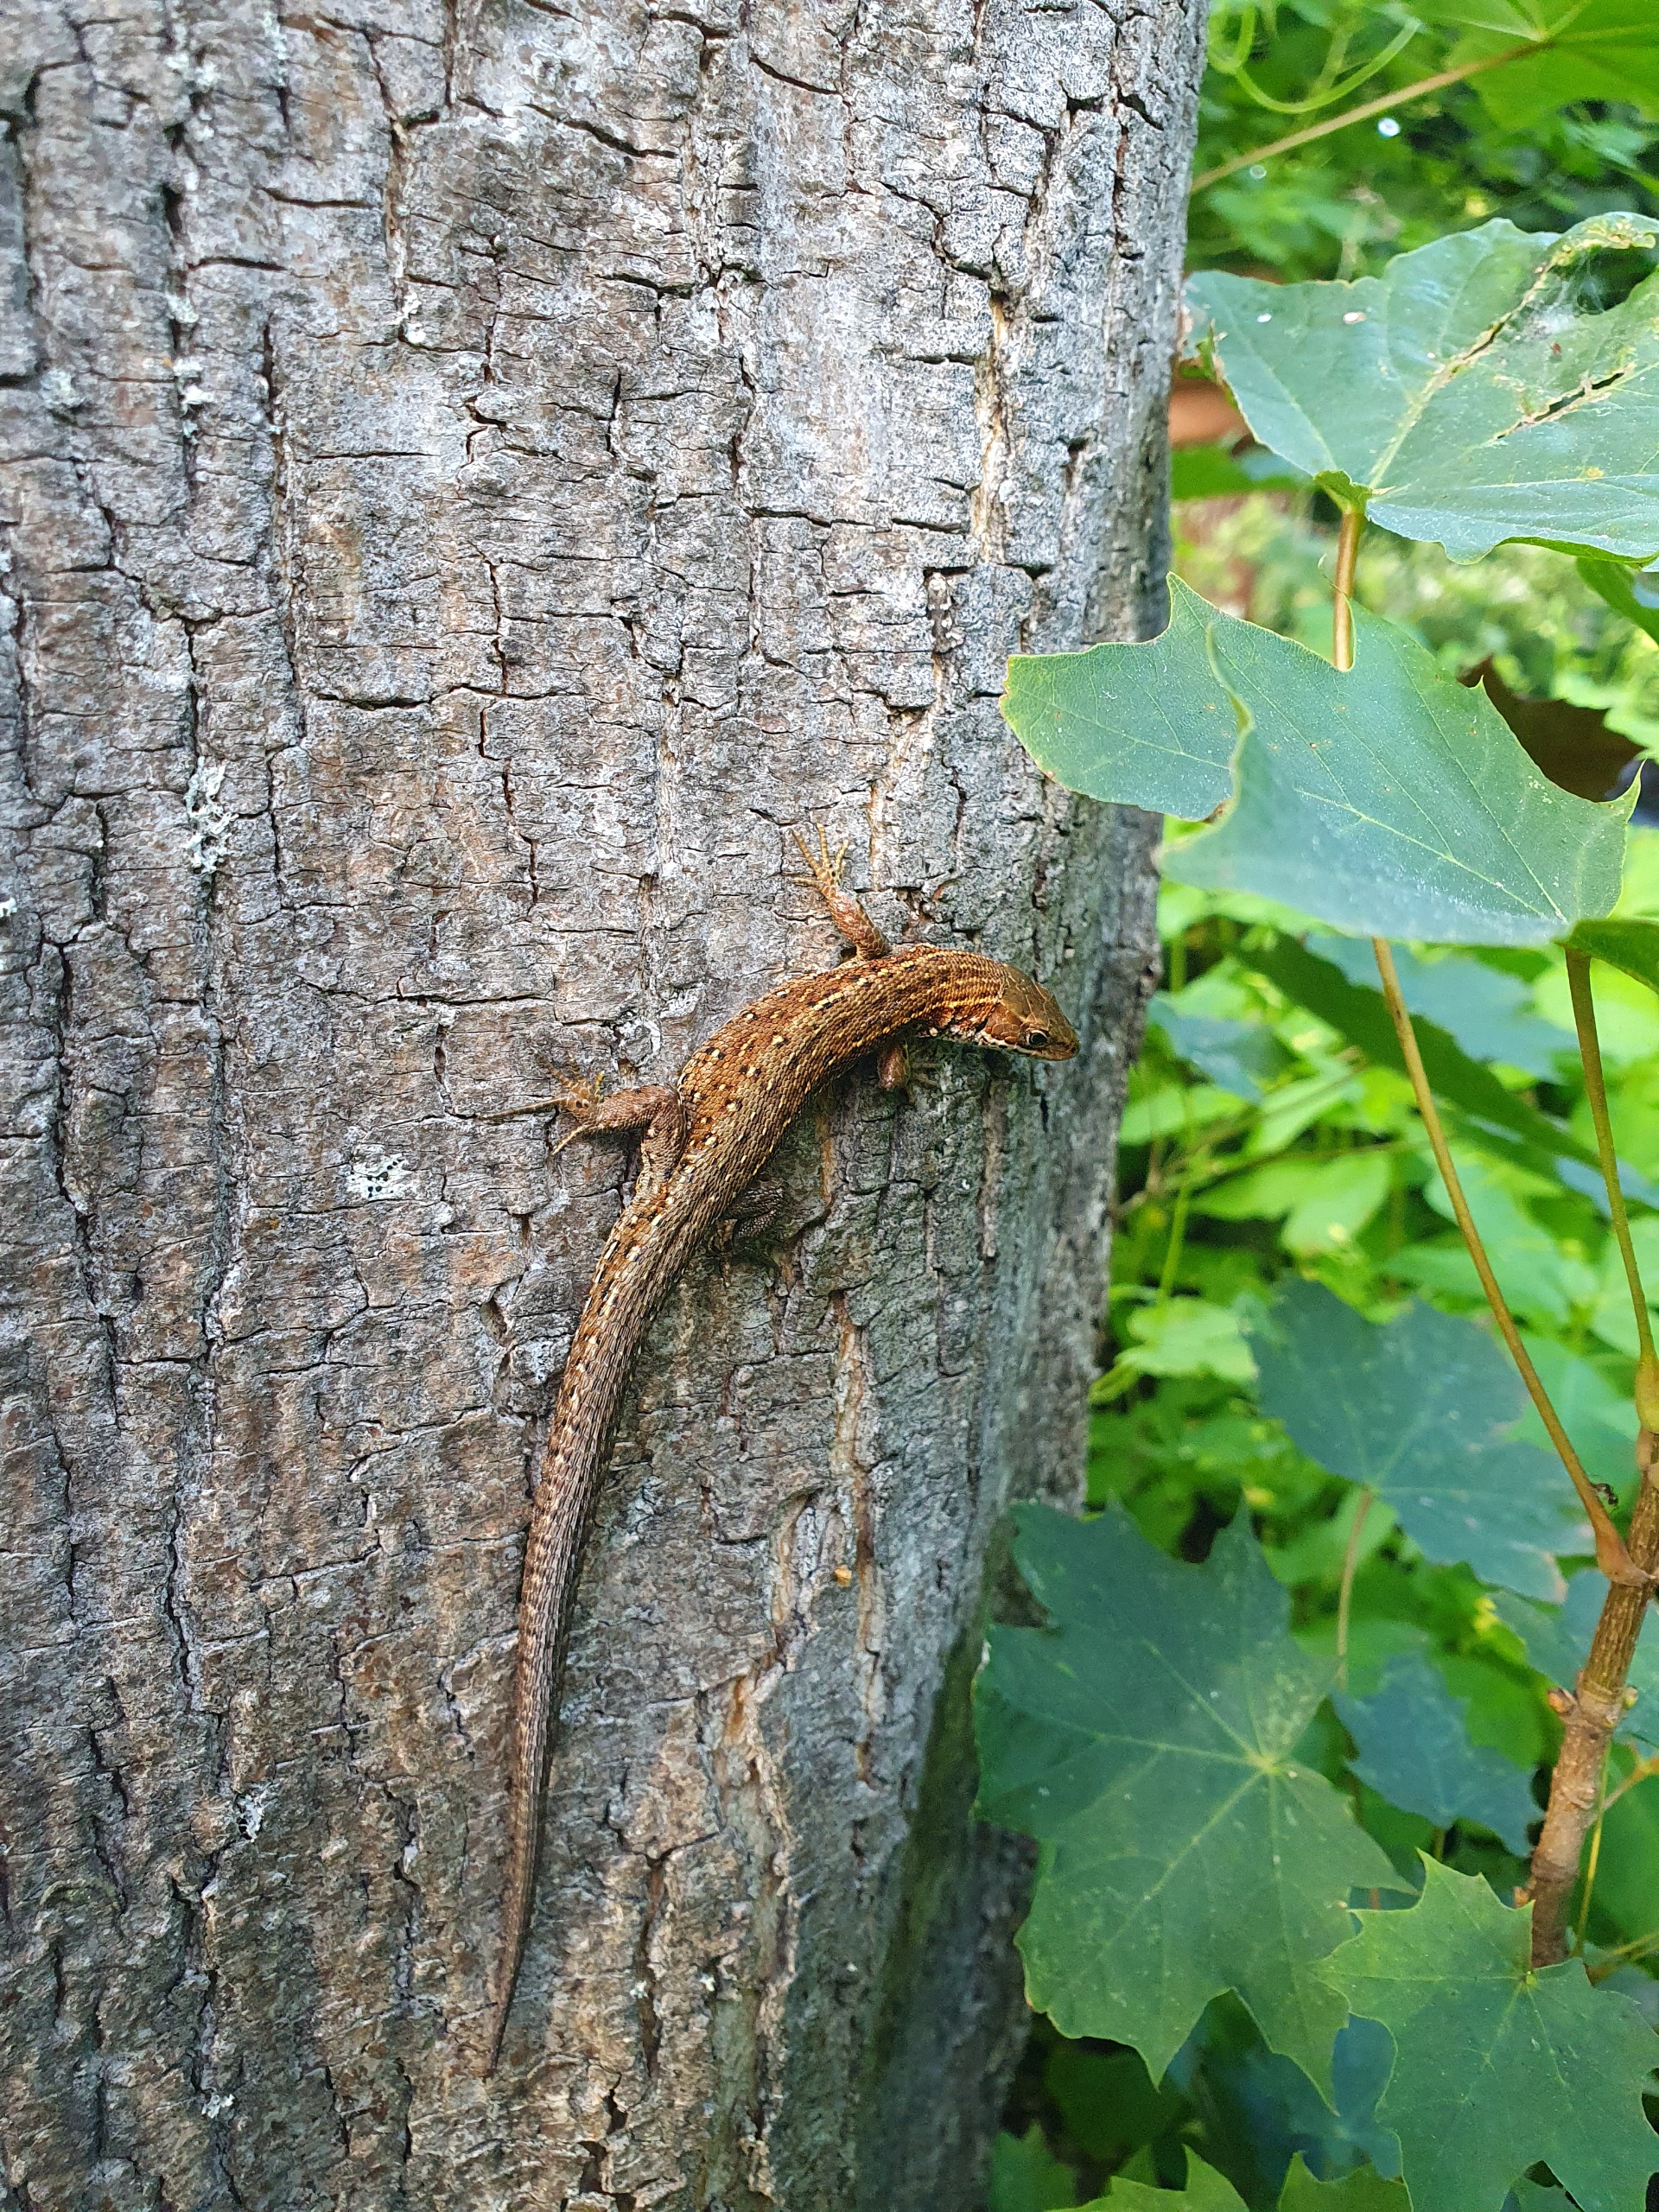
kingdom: Animalia
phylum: Chordata
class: Squamata
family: Lacertidae
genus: Zootoca
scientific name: Zootoca vivipara
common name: Skovfirben
